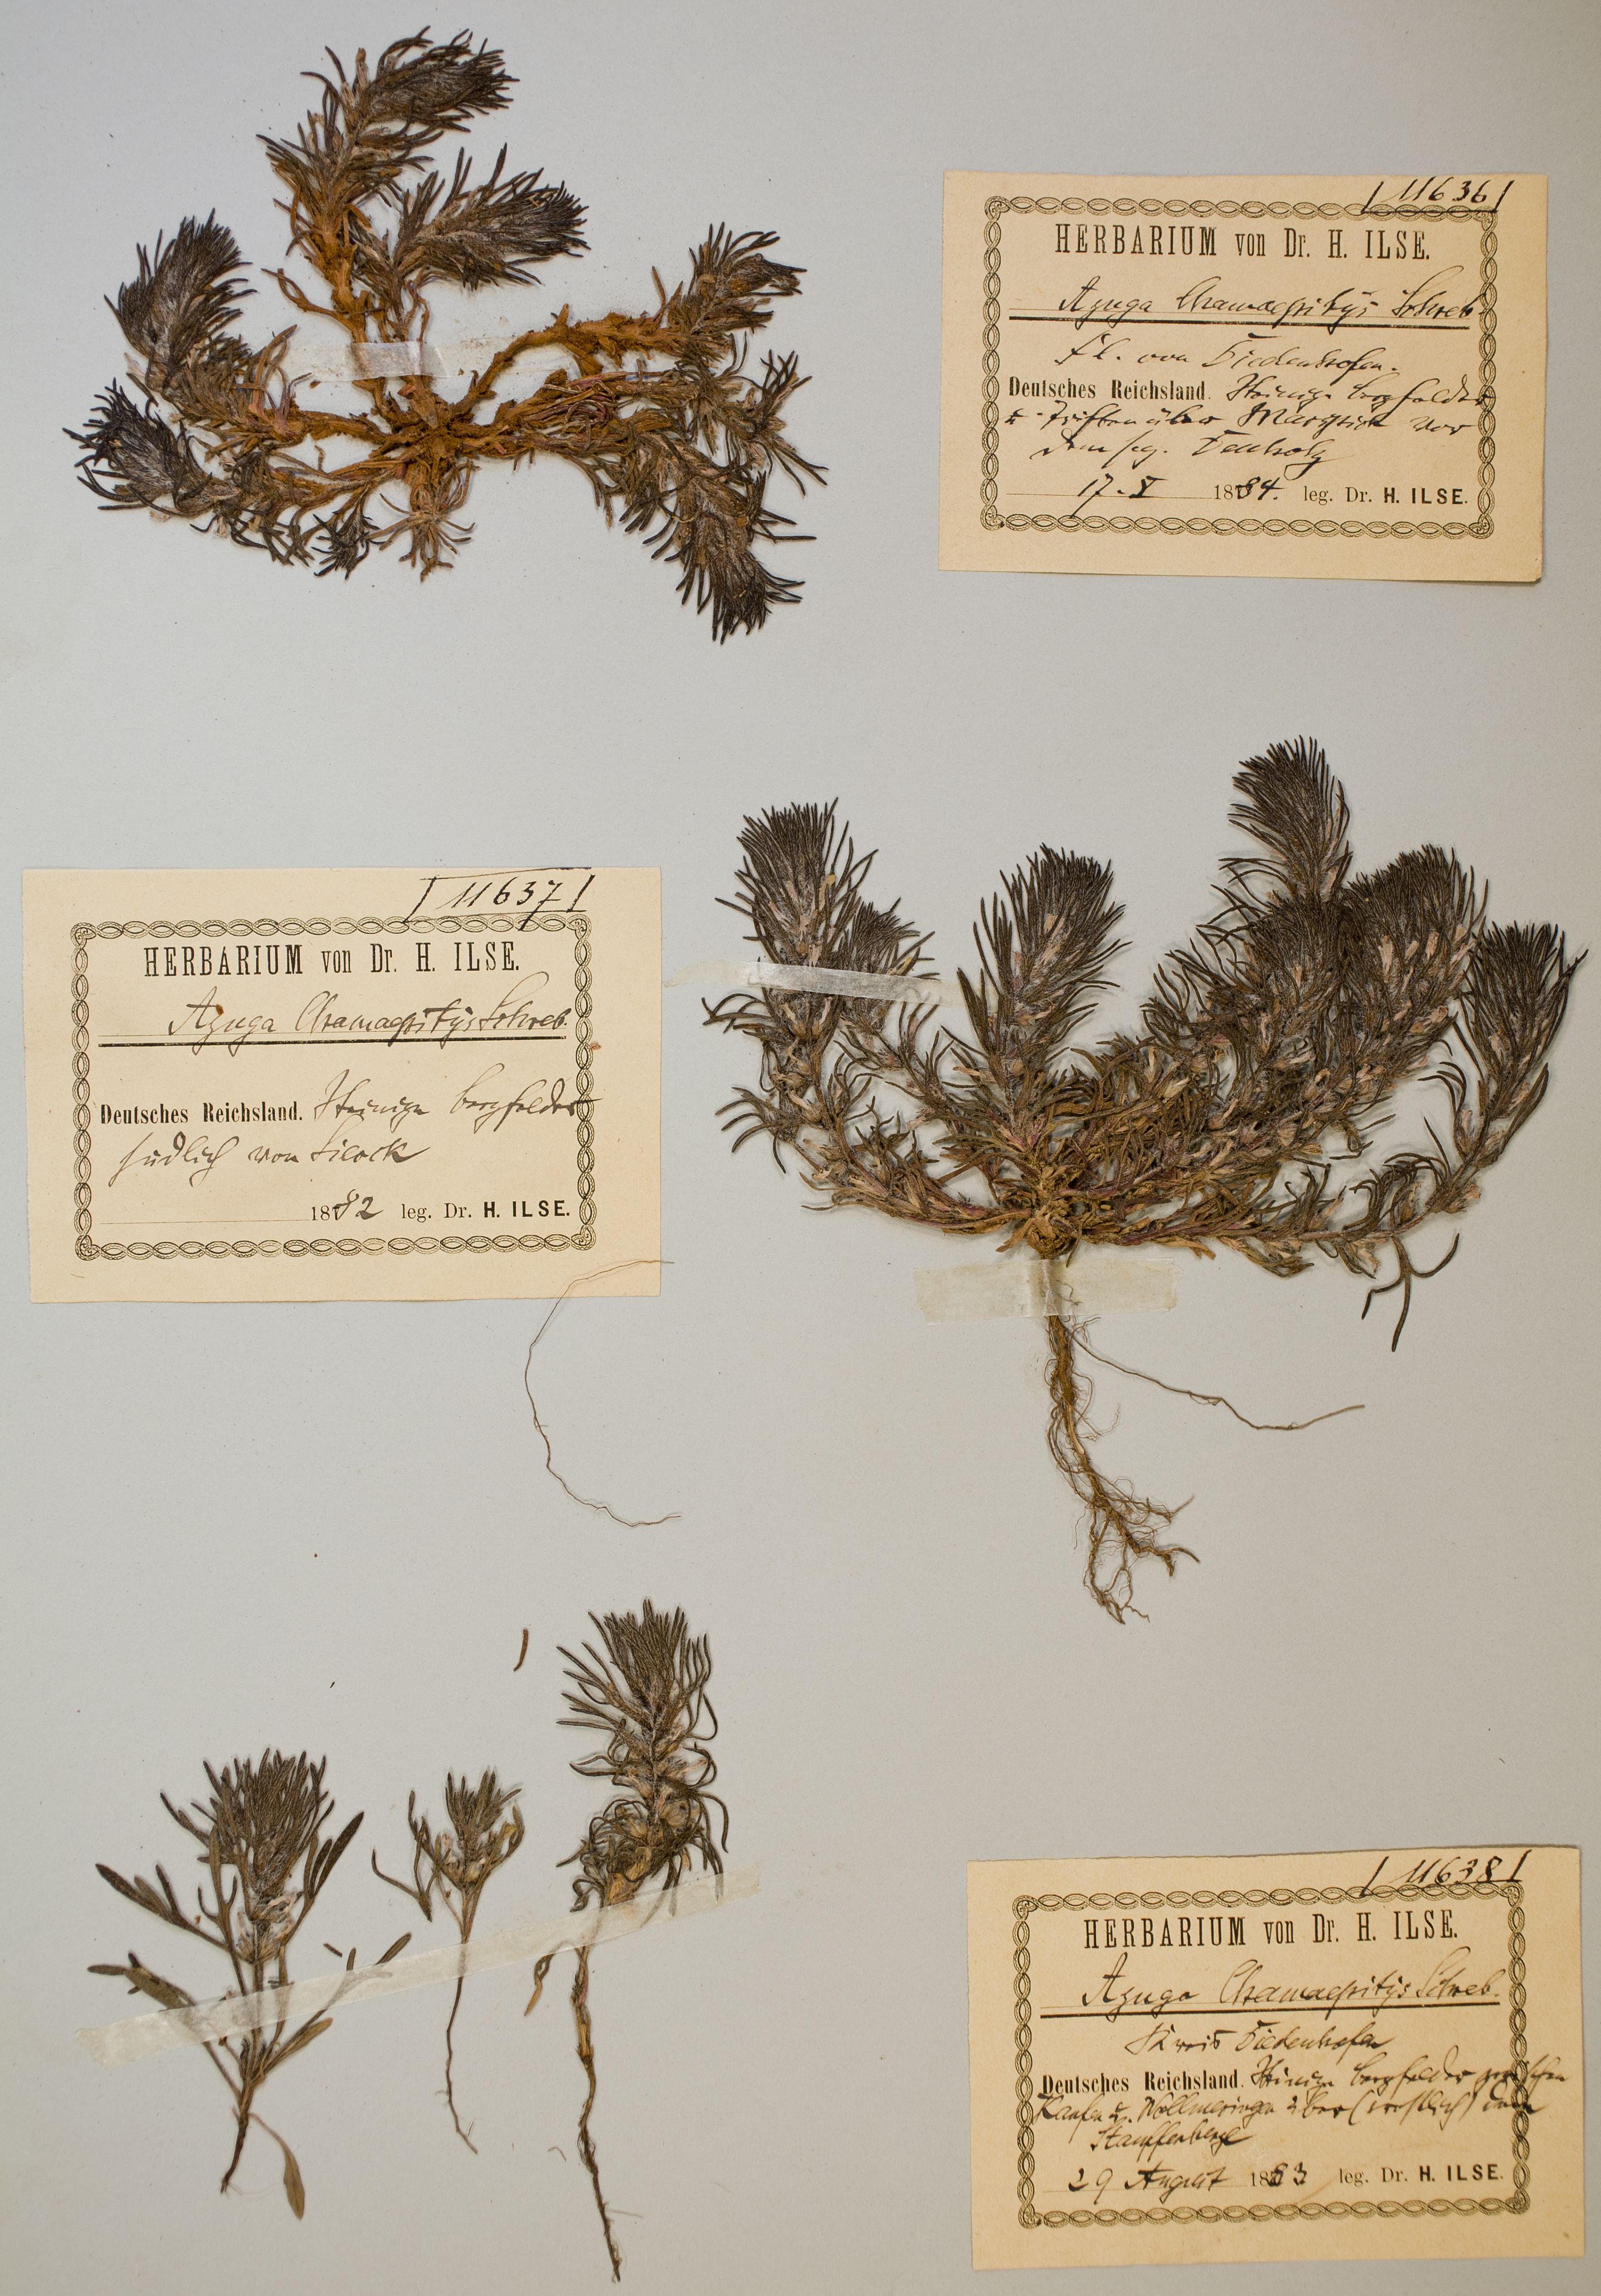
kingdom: Plantae
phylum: Tracheophyta
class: Magnoliopsida
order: Lamiales
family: Lamiaceae
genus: Ajuga
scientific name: Ajuga chamaepitys
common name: Ground-pine
